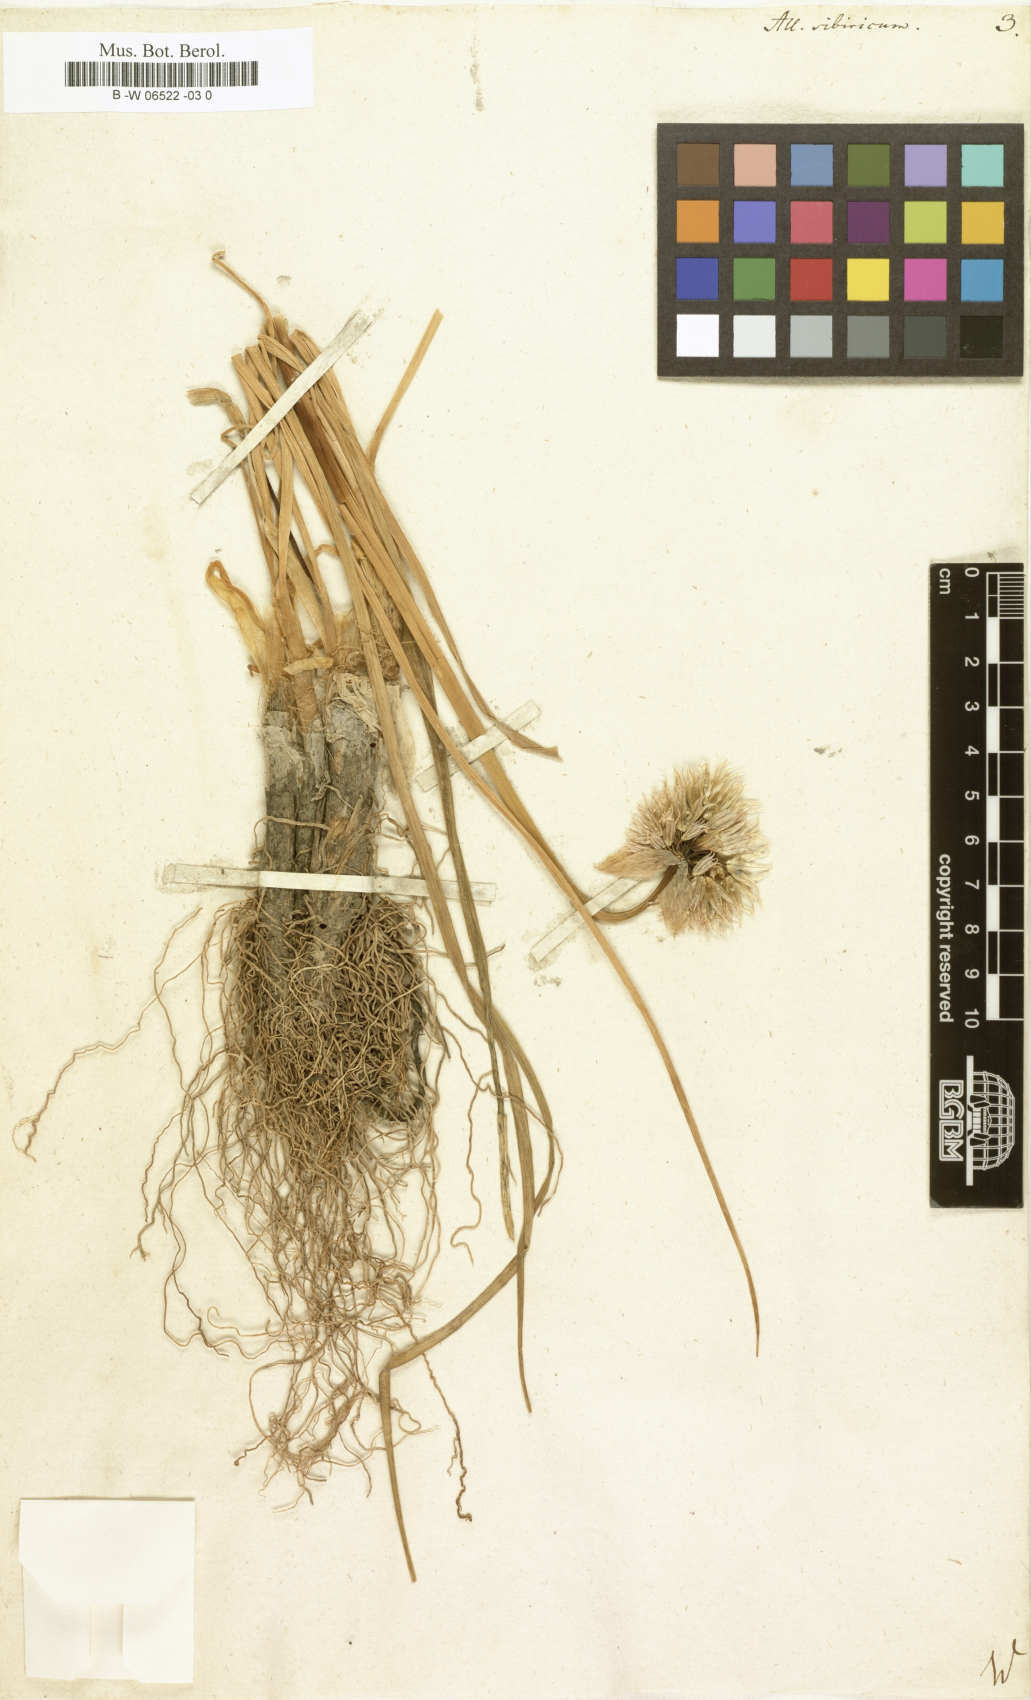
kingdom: Plantae
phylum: Tracheophyta
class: Liliopsida
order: Asparagales
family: Amaryllidaceae
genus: Allium
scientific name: Allium schoenoprasum
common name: Chives
